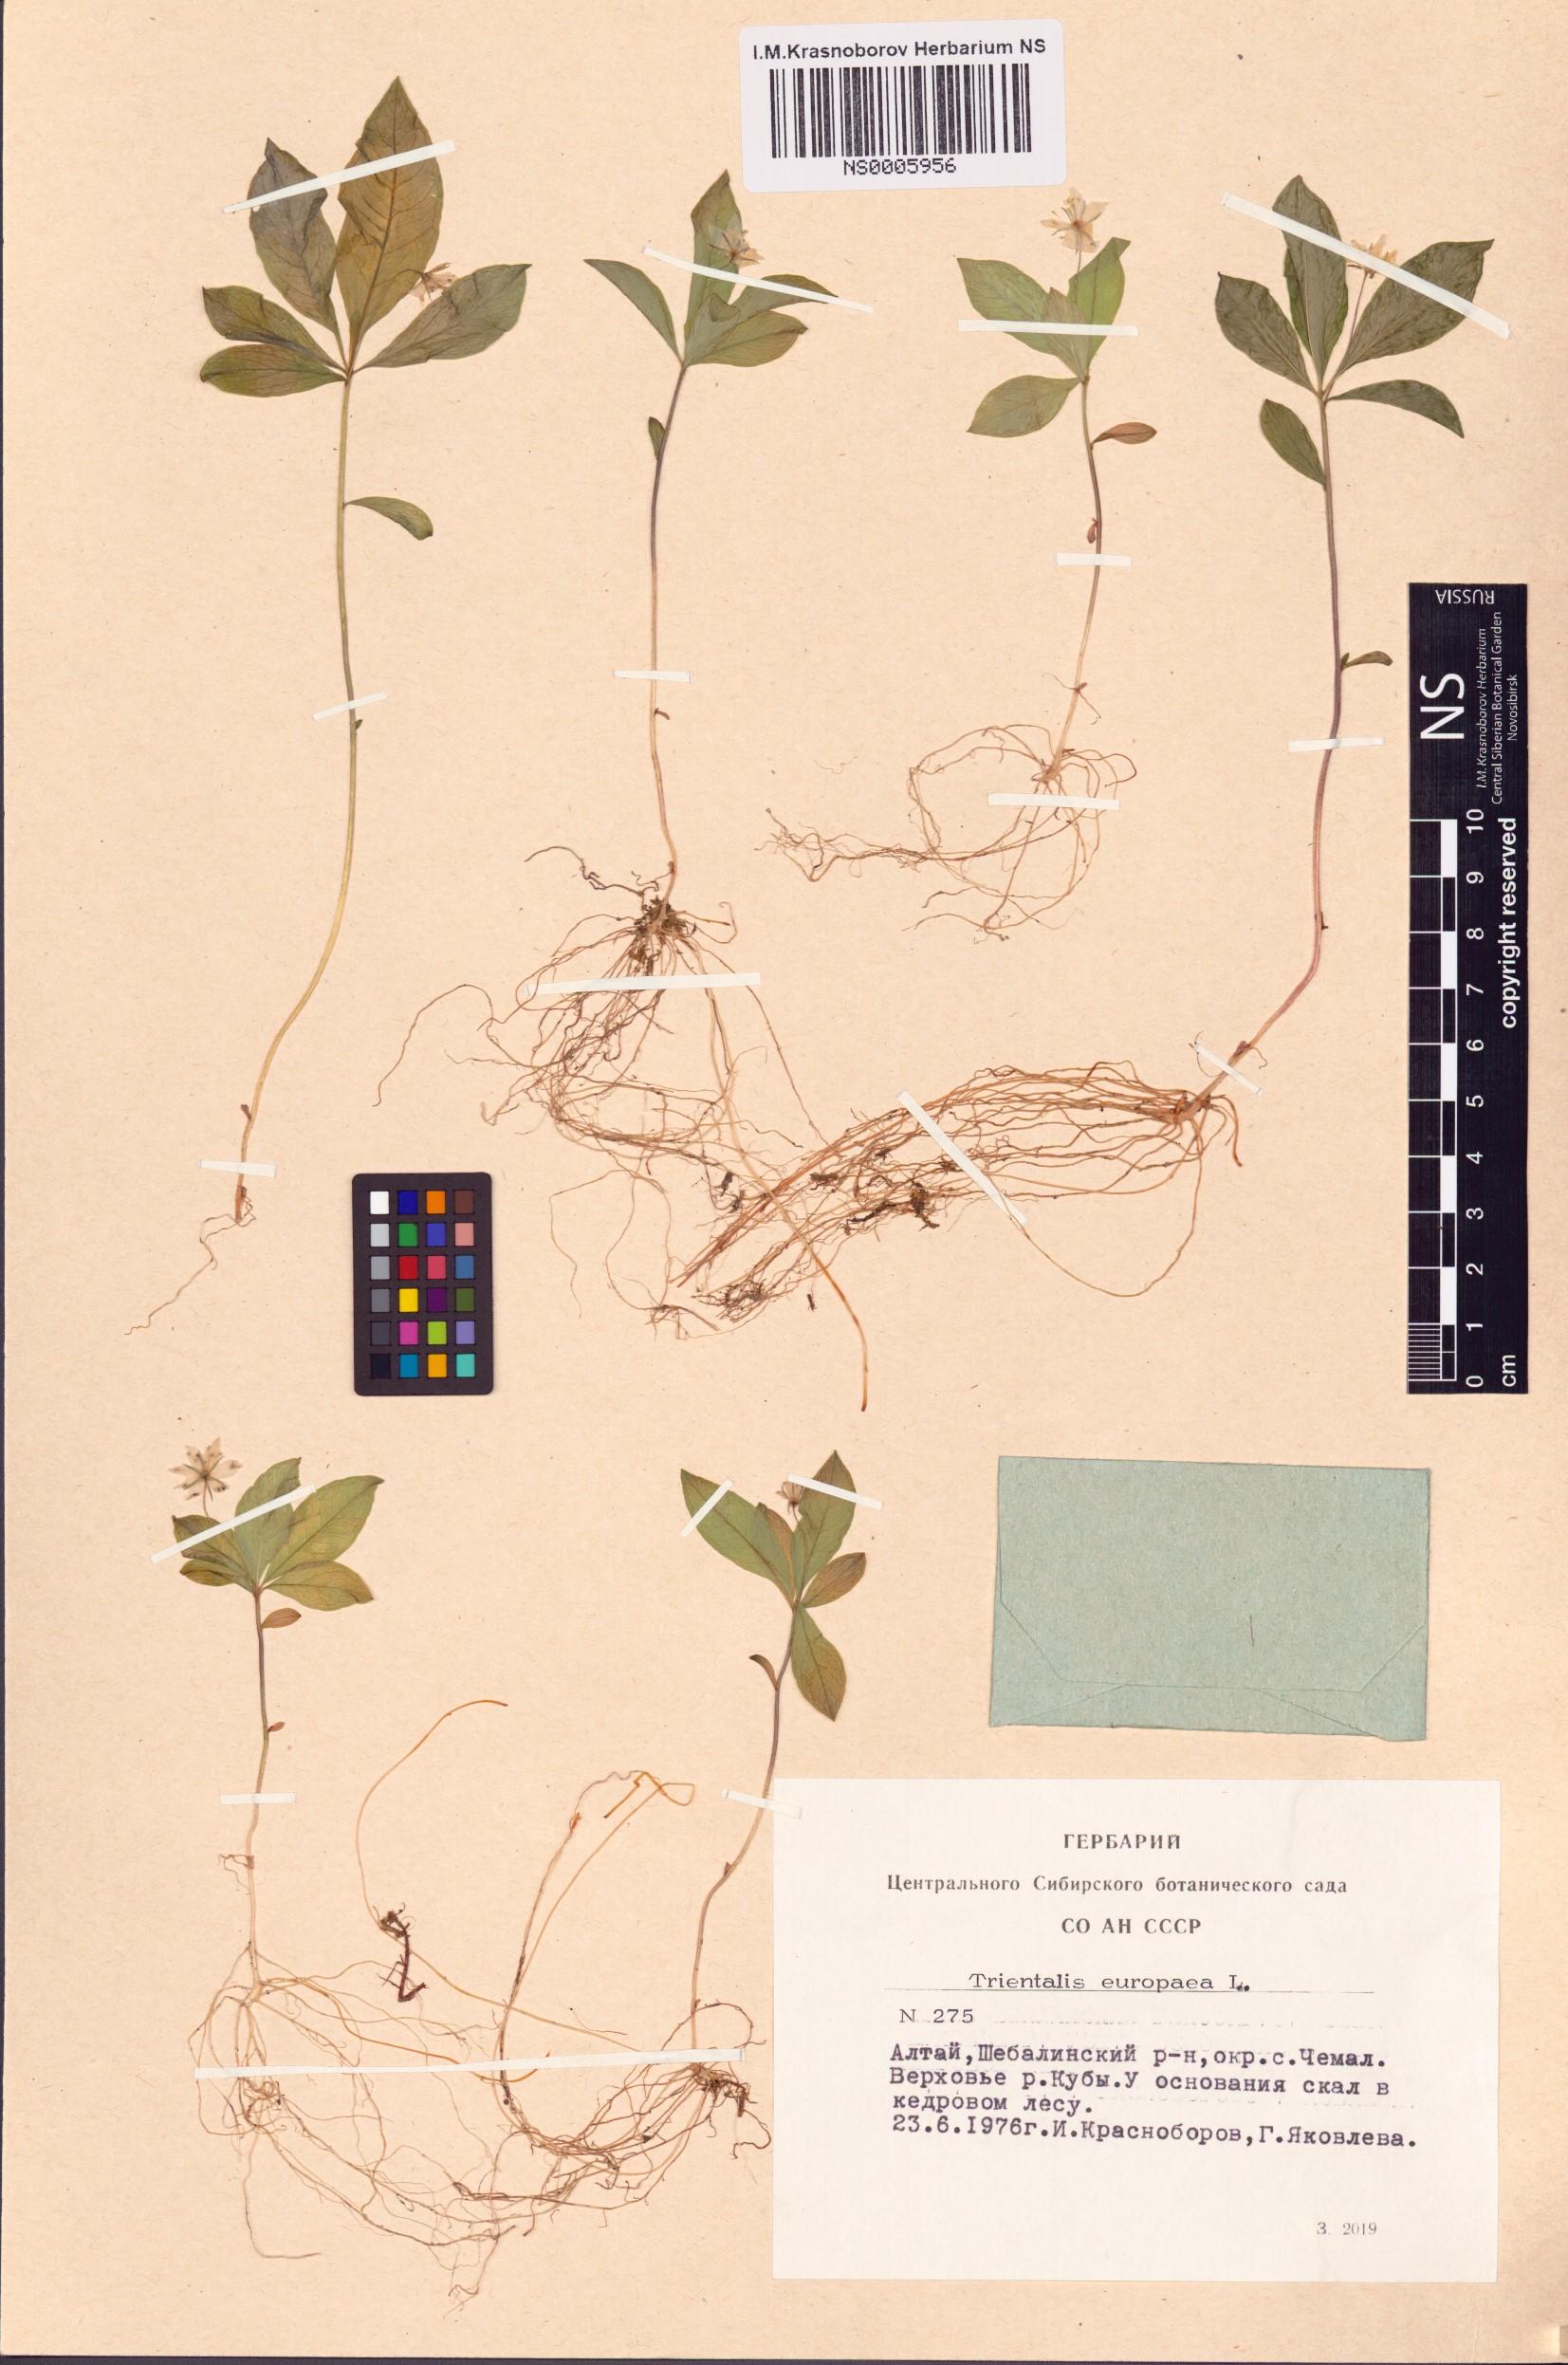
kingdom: Plantae
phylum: Tracheophyta
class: Magnoliopsida
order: Ericales
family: Primulaceae
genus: Lysimachia
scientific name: Lysimachia europaea
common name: Arctic starflower
